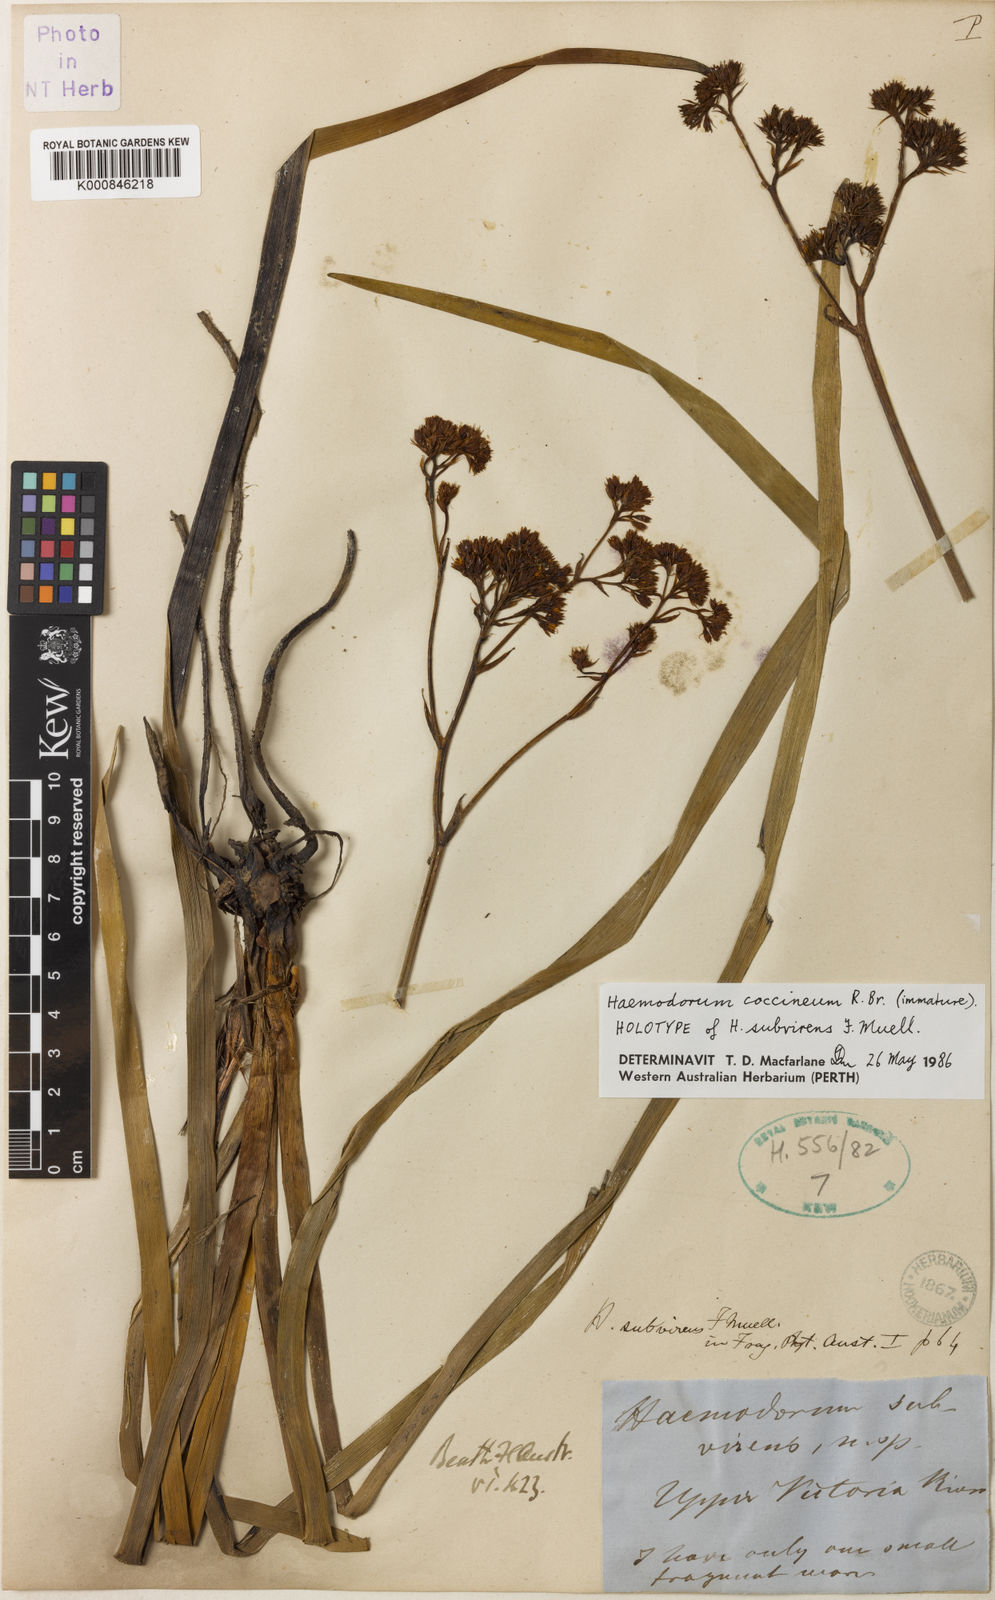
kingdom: Plantae
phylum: Tracheophyta
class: Liliopsida
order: Commelinales
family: Haemodoraceae
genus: Haemodorum
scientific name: Haemodorum coccineum
